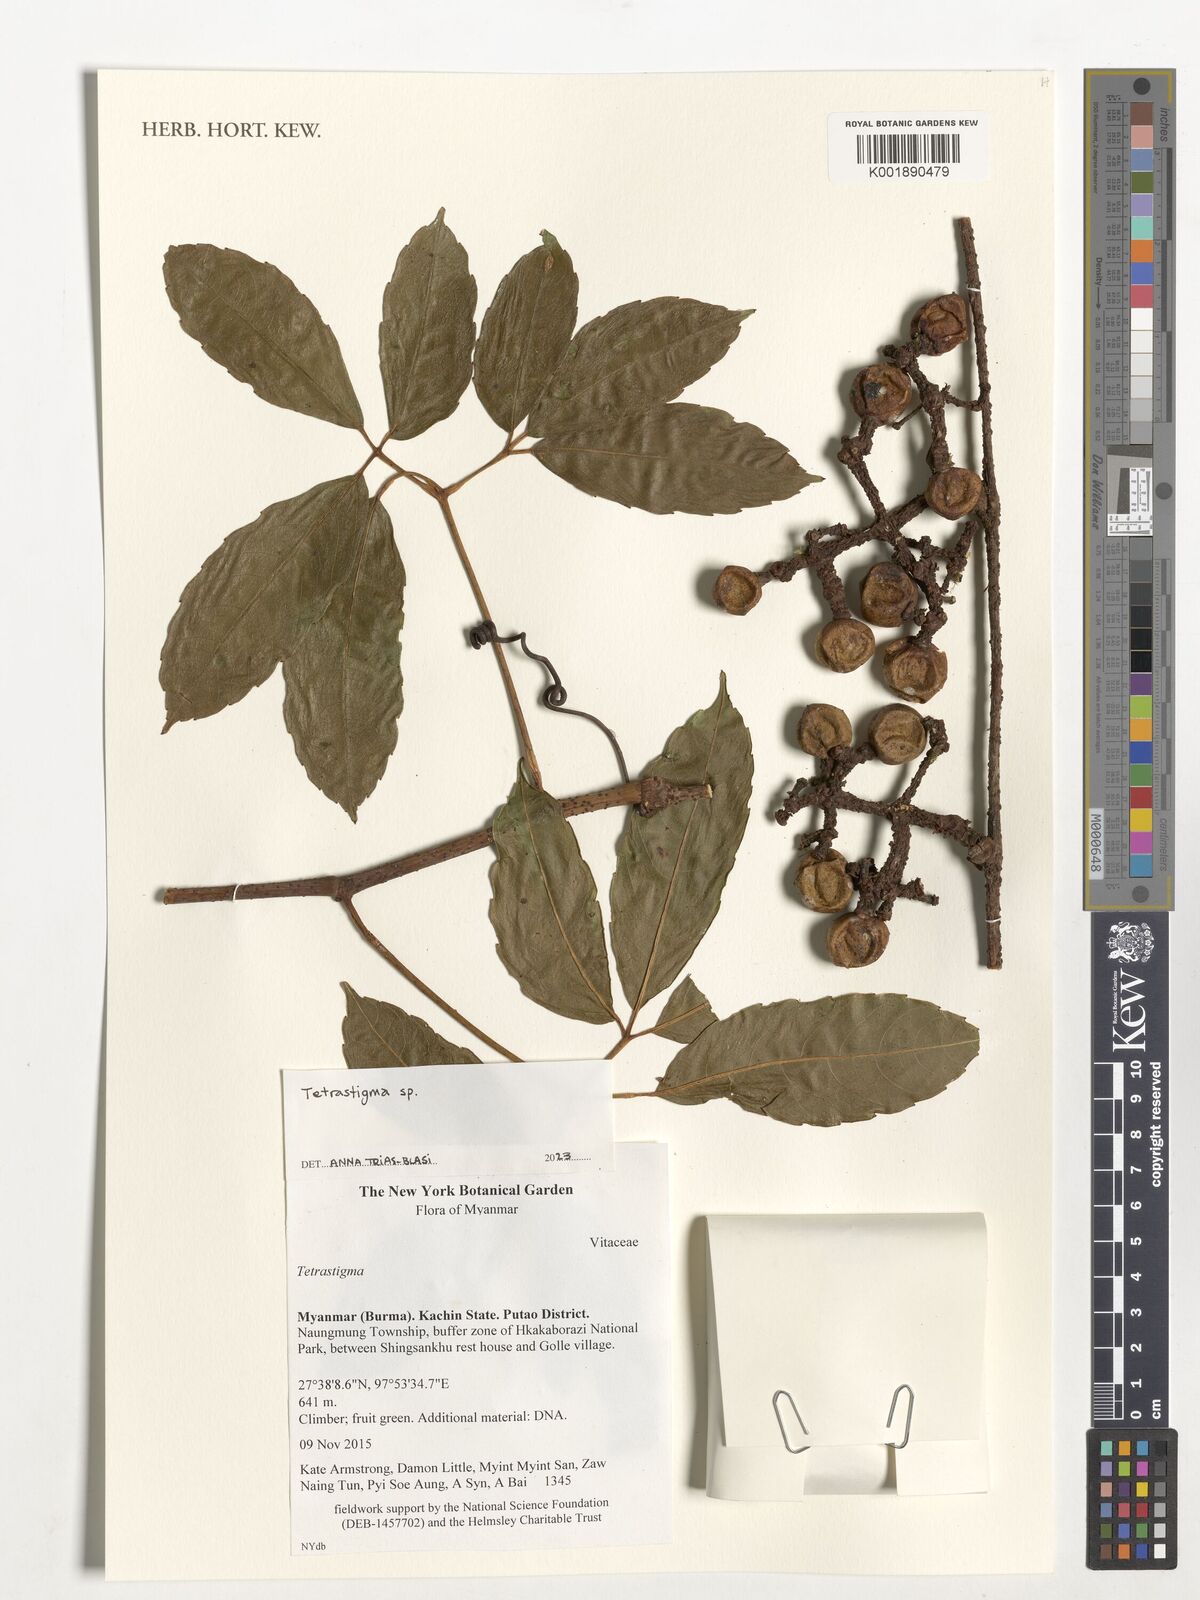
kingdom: Plantae
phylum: Tracheophyta
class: Magnoliopsida
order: Vitales
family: Vitaceae
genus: Tetrastigma
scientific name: Tetrastigma
